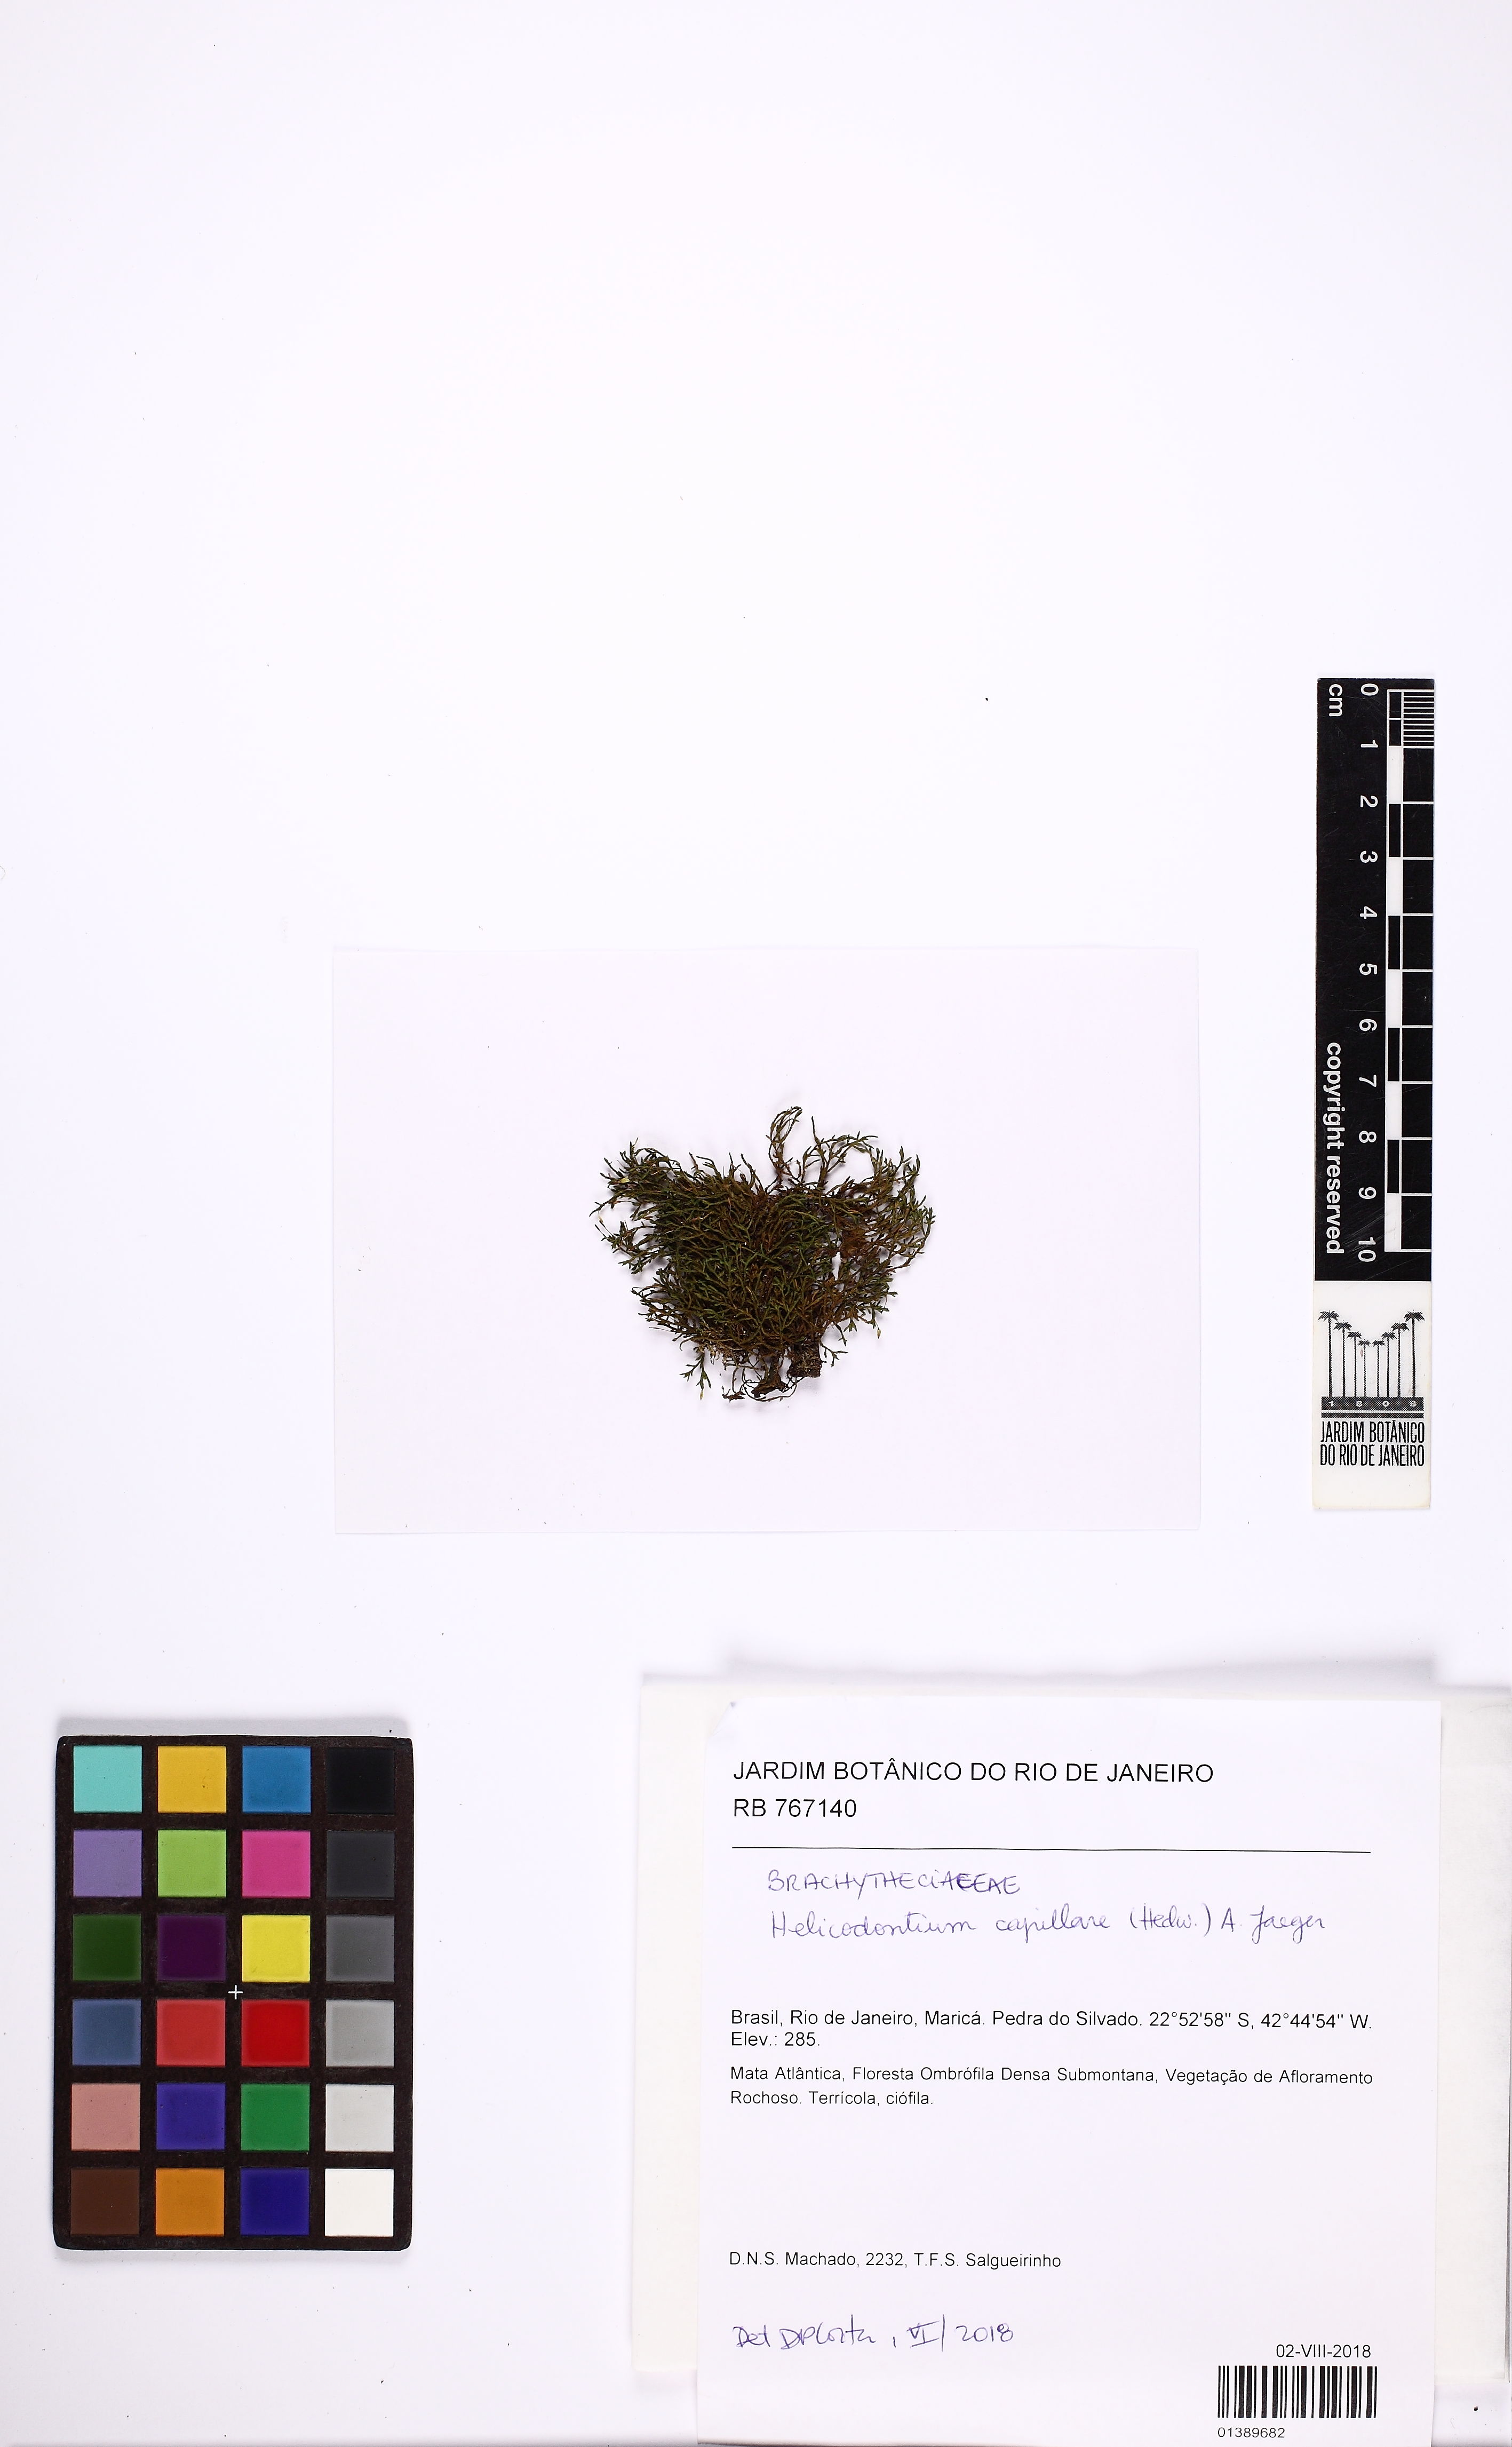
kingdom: Plantae
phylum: Bryophyta
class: Bryopsida
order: Hypnales
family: Brachytheciaceae
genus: Helicodontium
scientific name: Helicodontium capillare
